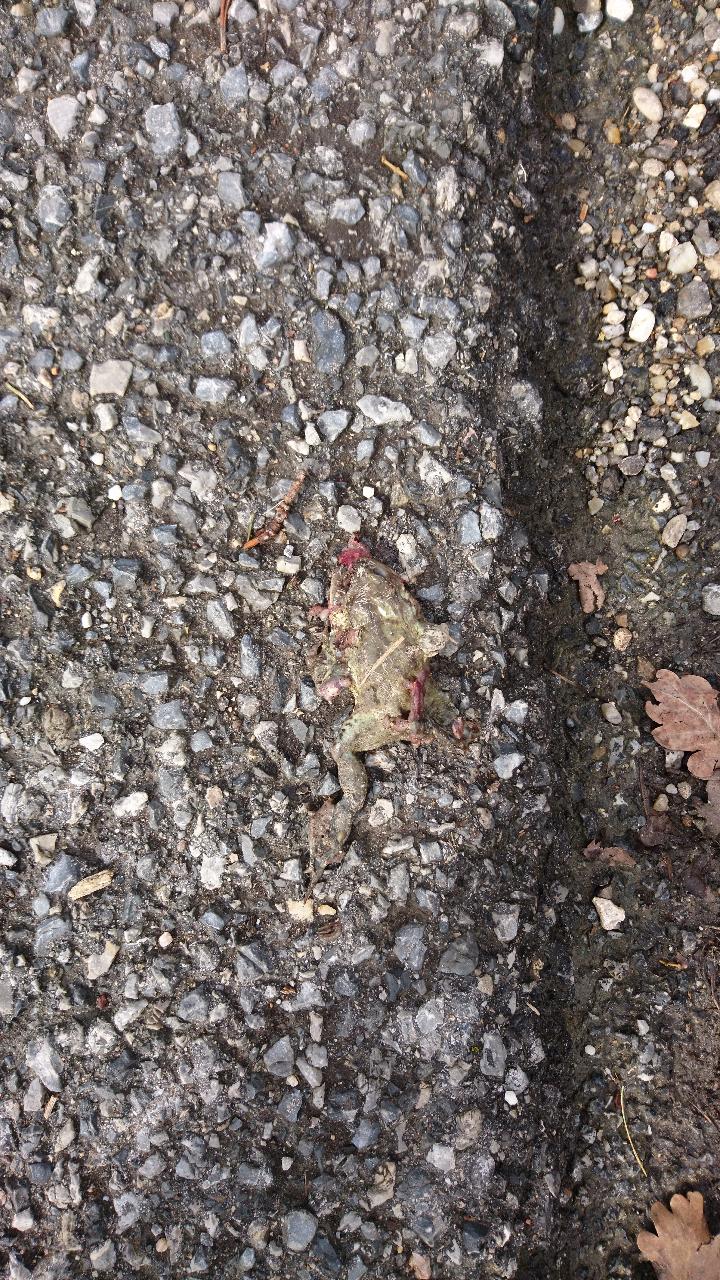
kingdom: Animalia
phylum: Chordata
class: Amphibia
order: Anura
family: Bufonidae
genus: Bufo
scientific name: Bufo bufo
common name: Common toad
